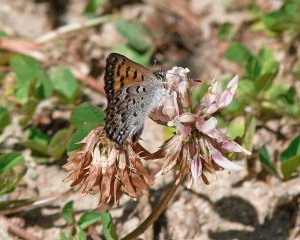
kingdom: Animalia
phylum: Arthropoda
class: Insecta
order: Lepidoptera
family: Lycaenidae
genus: Lycaena
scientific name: Lycaena mariposa
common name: Mariposa Copper
